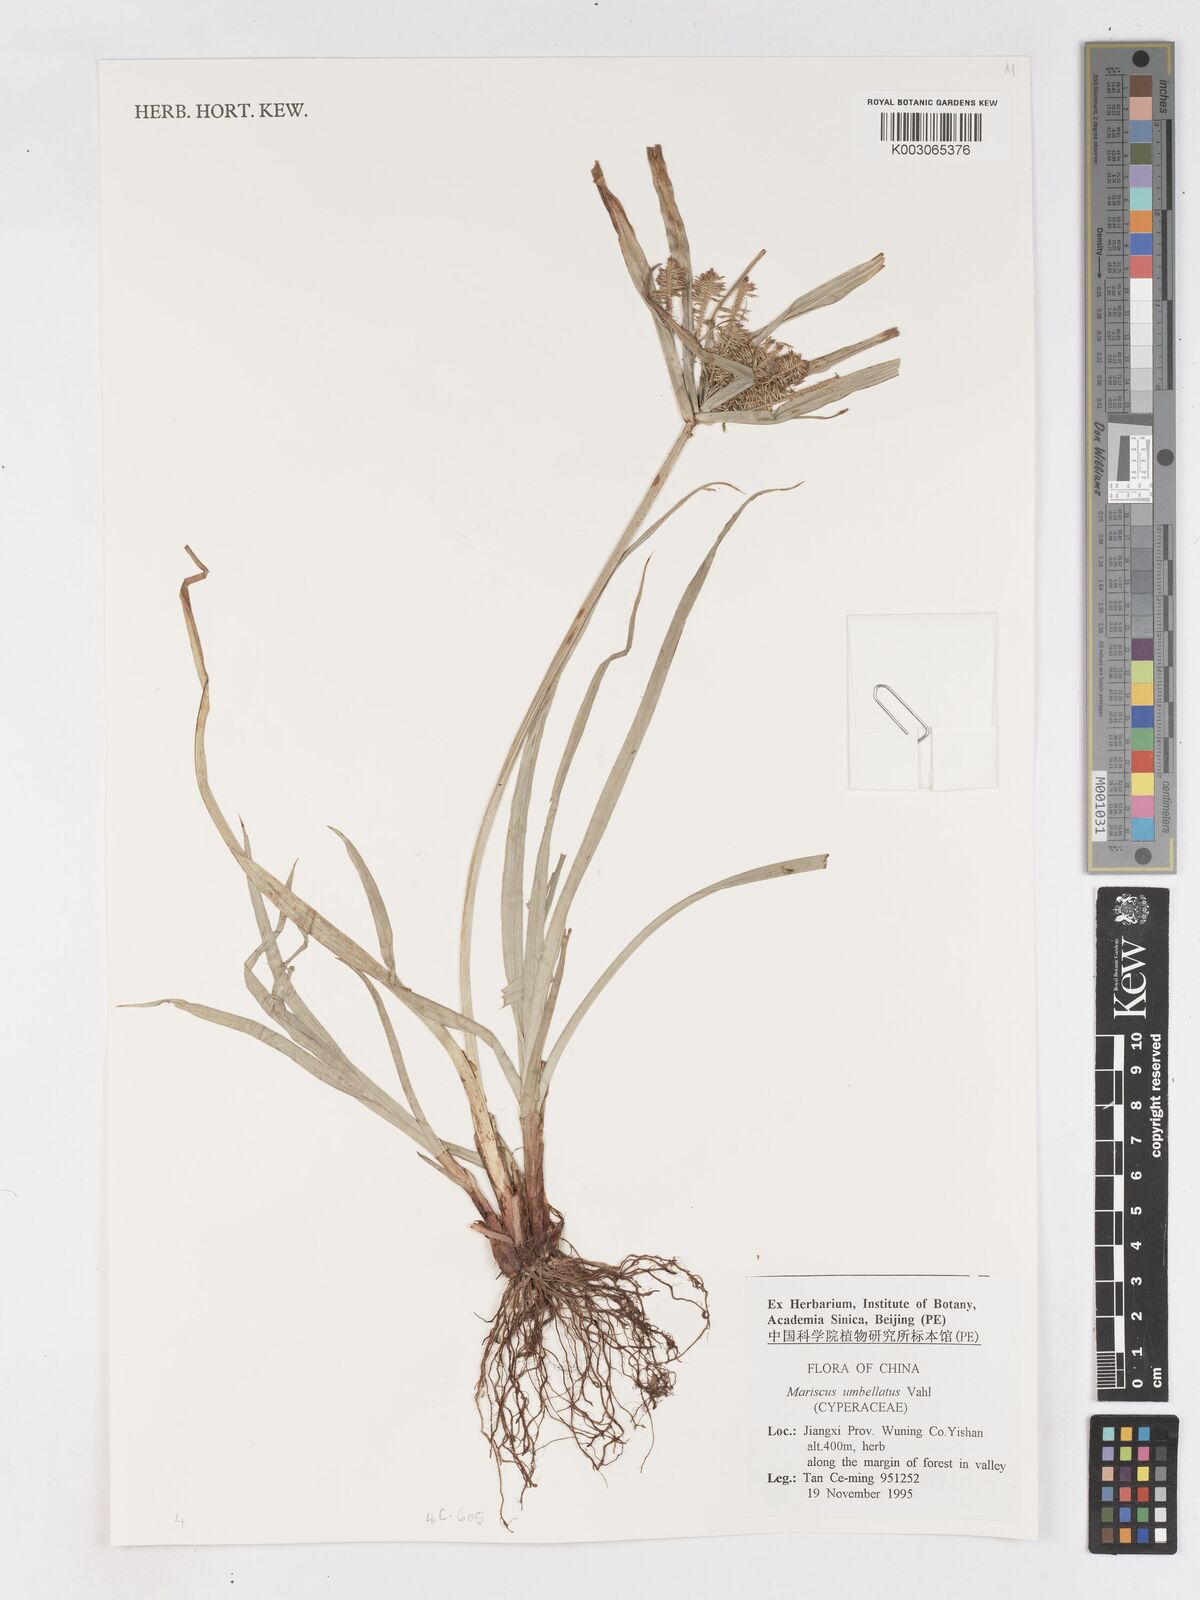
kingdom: Plantae
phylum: Tracheophyta
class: Liliopsida
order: Poales
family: Cyperaceae
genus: Cyperus
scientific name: Cyperus
